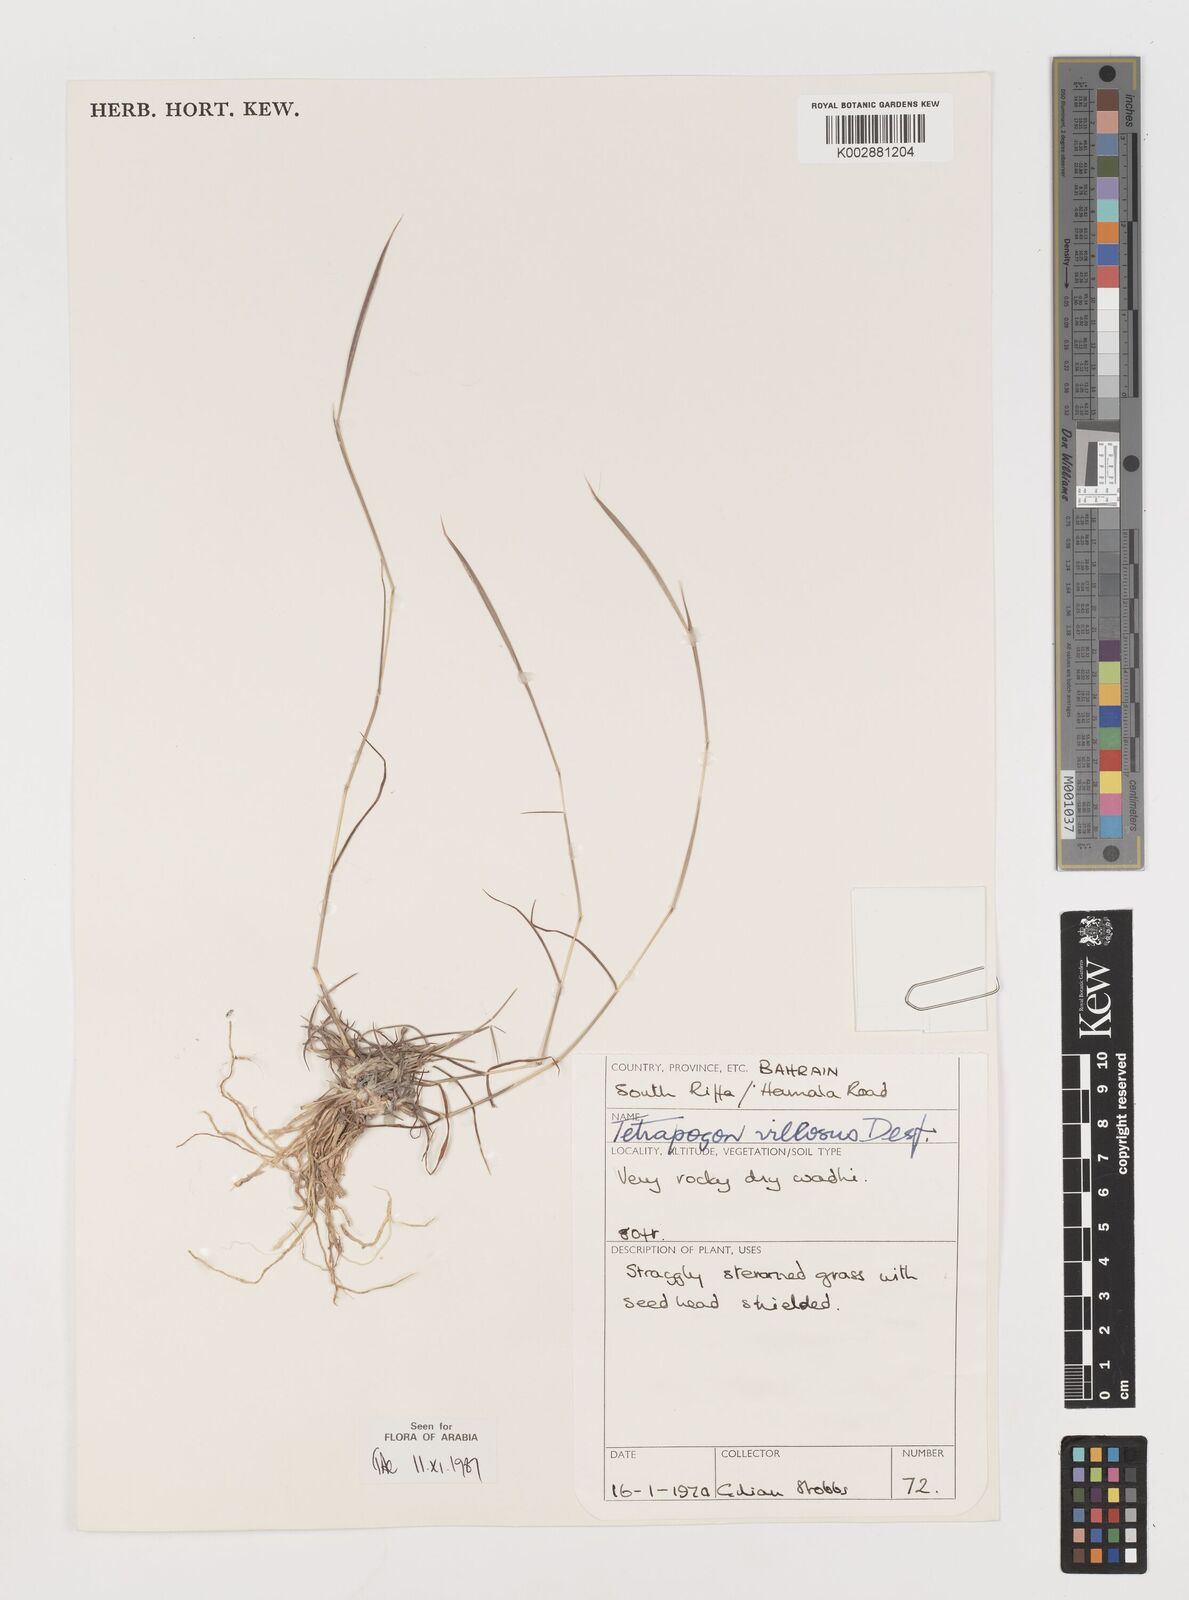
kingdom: Plantae
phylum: Tracheophyta
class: Liliopsida
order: Poales
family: Poaceae
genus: Tetrapogon
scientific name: Tetrapogon villosus
